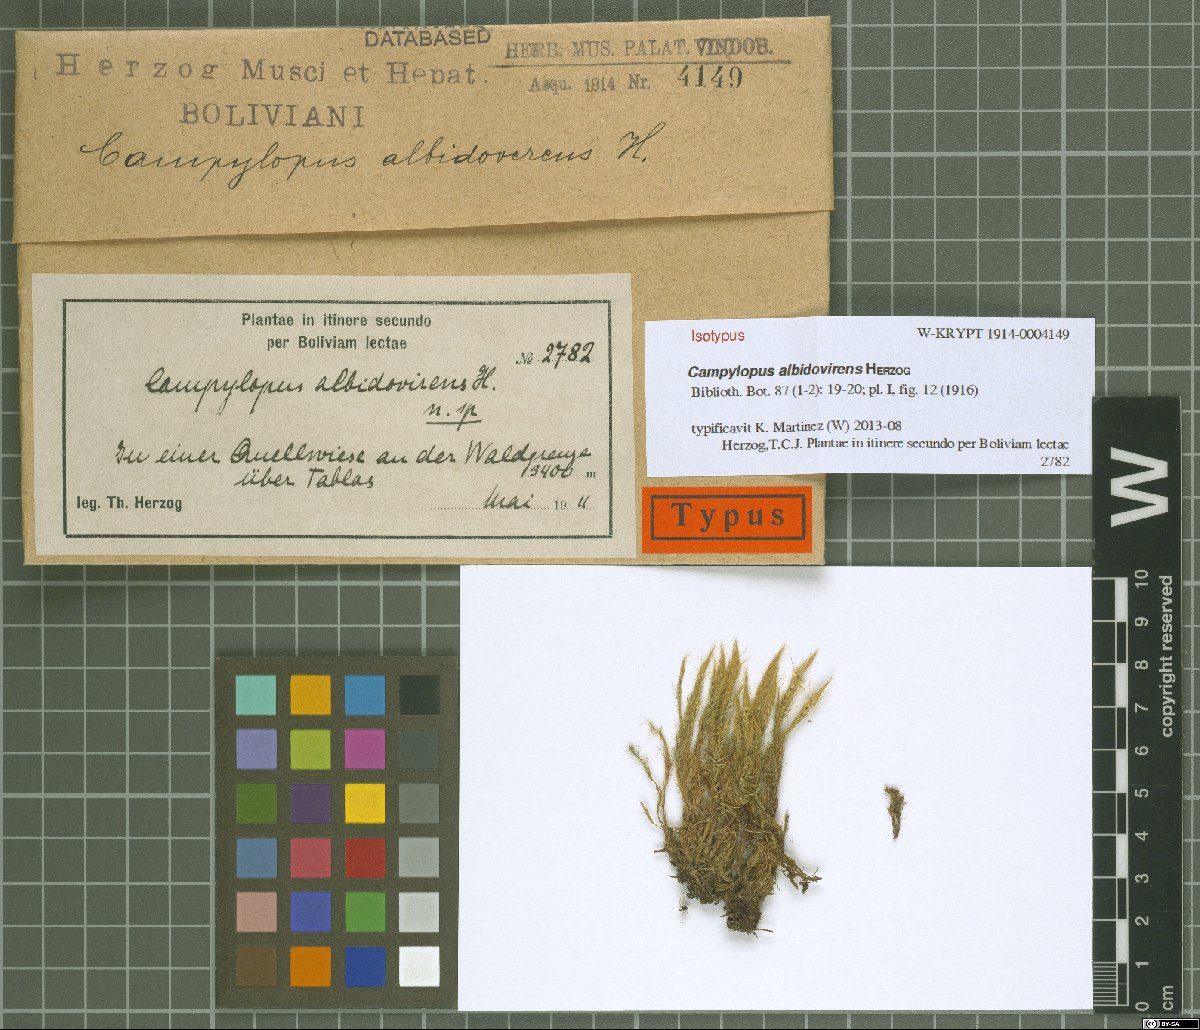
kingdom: Plantae
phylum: Bryophyta
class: Bryopsida
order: Dicranales
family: Leucobryaceae
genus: Campylopus
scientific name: Campylopus albidovirens
